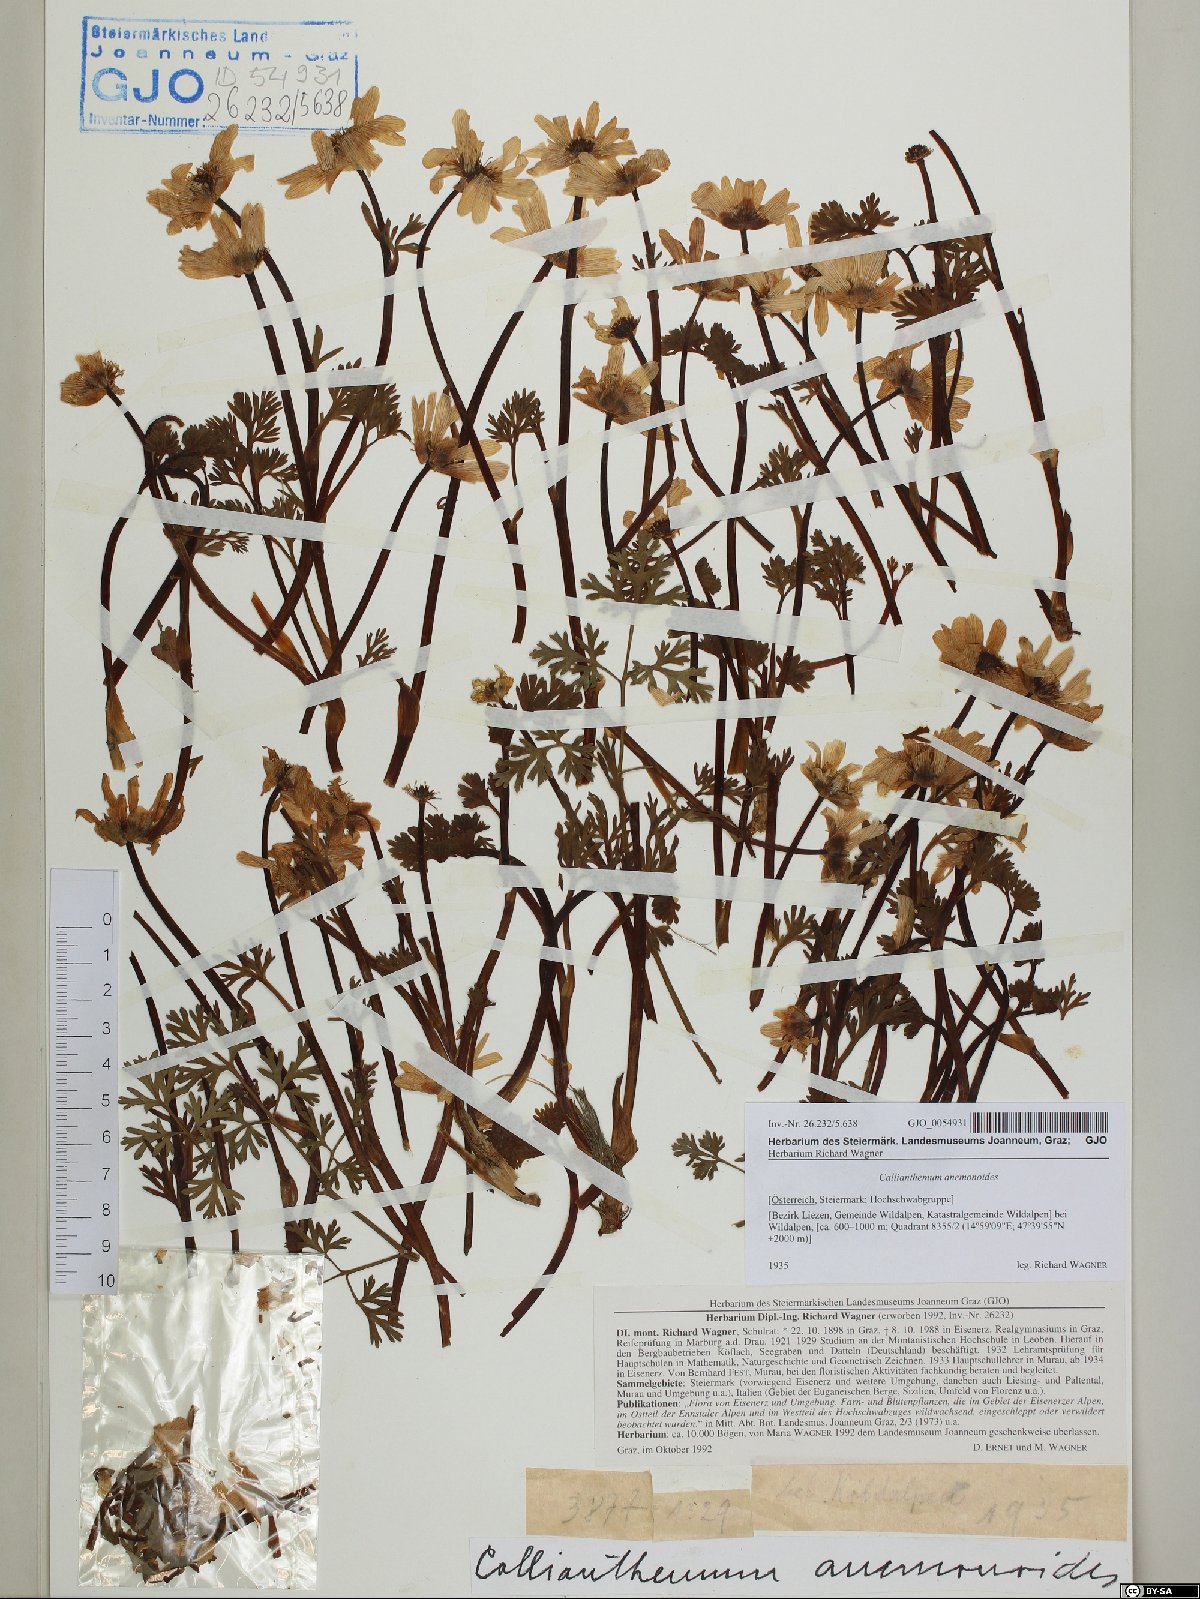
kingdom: Plantae
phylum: Tracheophyta
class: Magnoliopsida
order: Ranunculales
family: Ranunculaceae
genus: Callianthemum
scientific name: Callianthemum anemonoides
